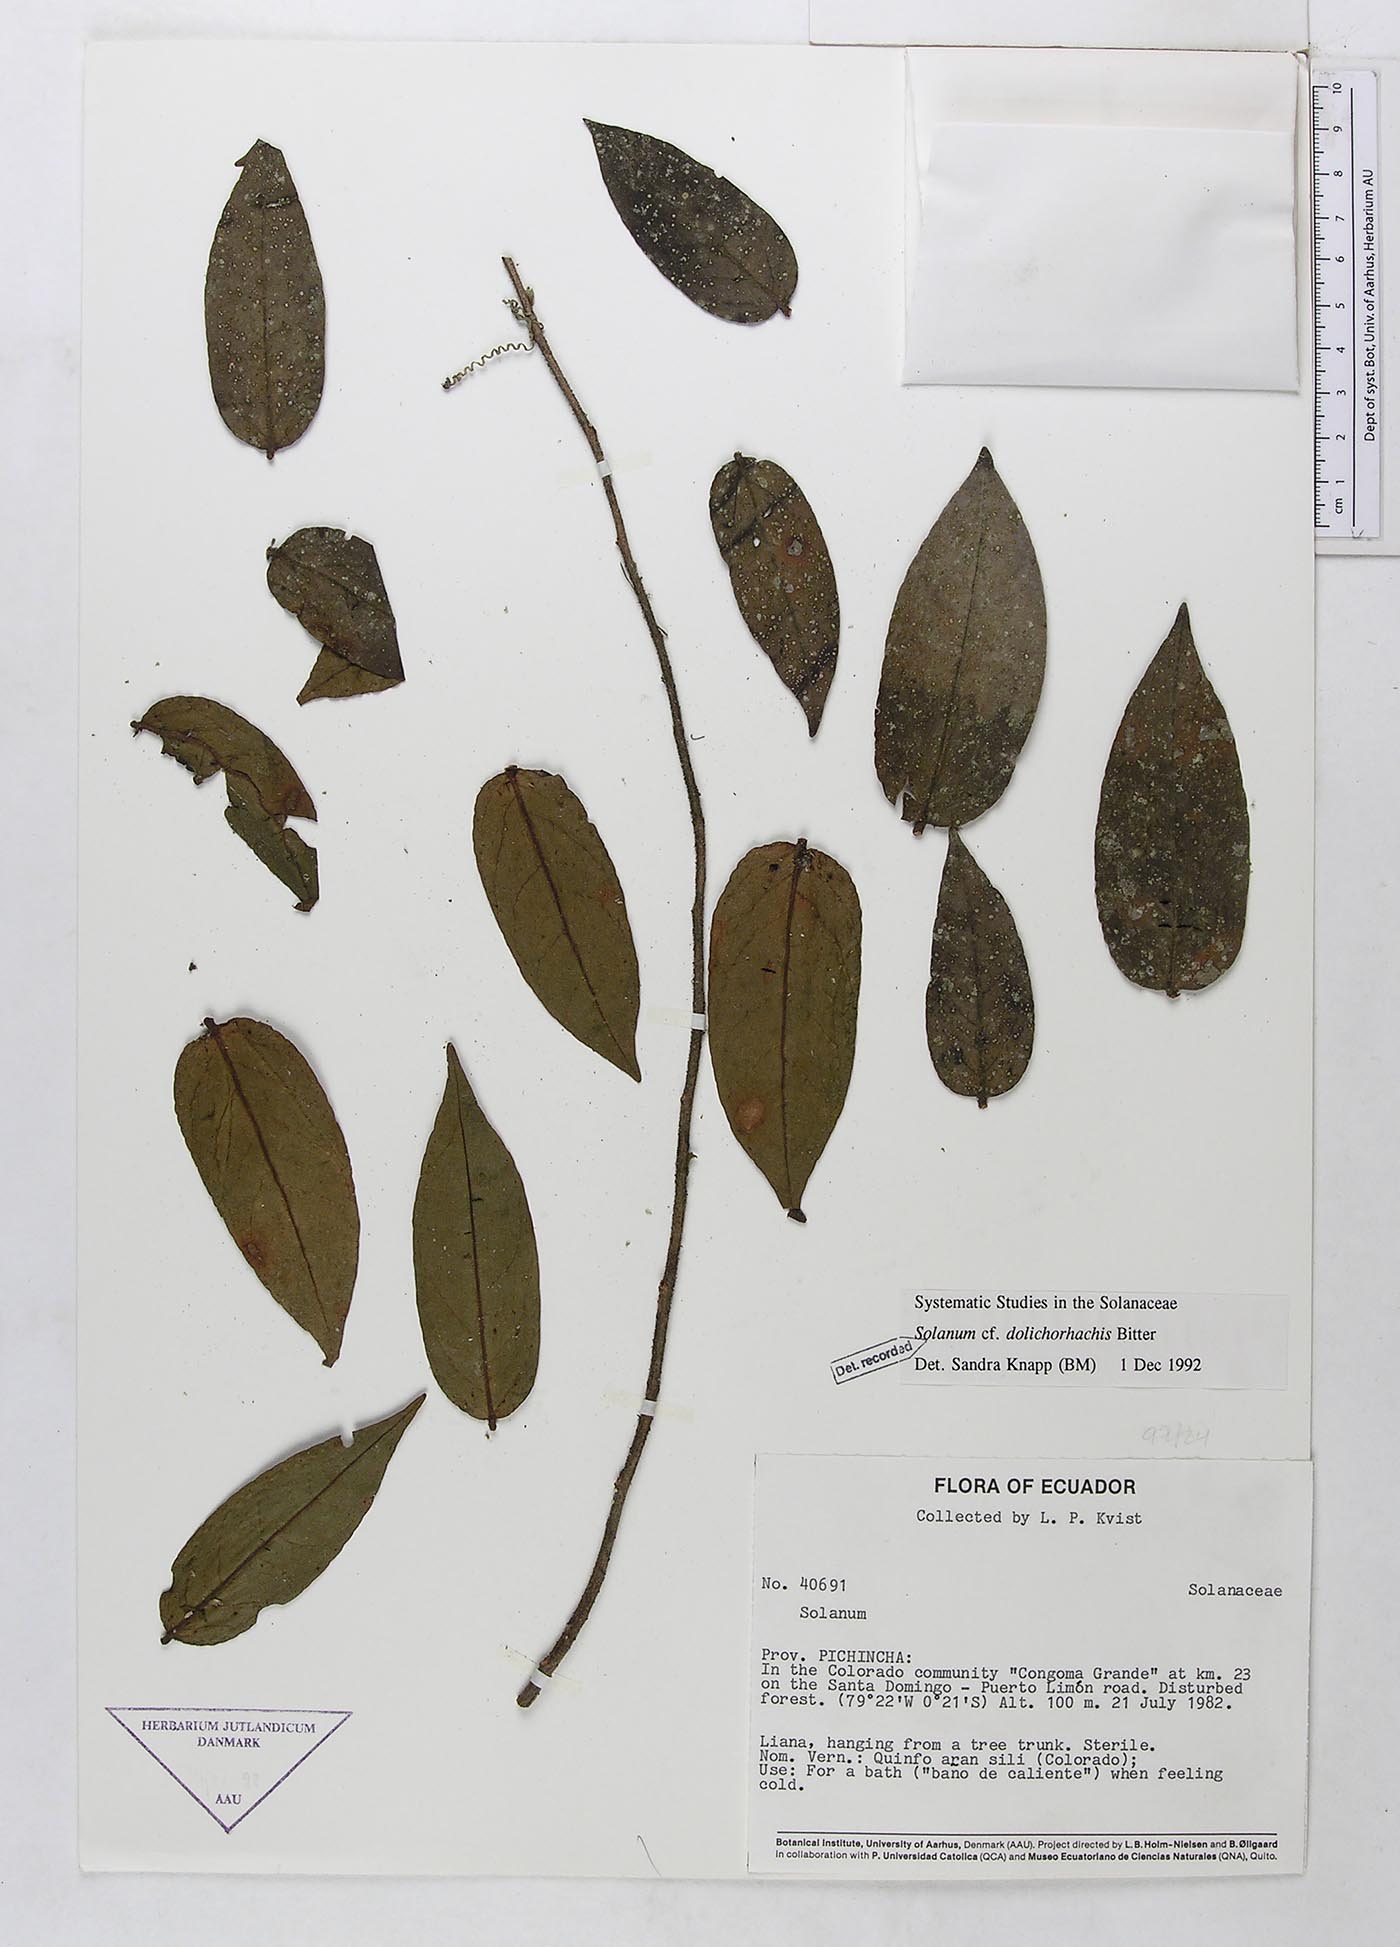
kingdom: Plantae
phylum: Tracheophyta
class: Magnoliopsida
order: Solanales
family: Solanaceae
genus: Solanum
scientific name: Solanum loxophyllum
